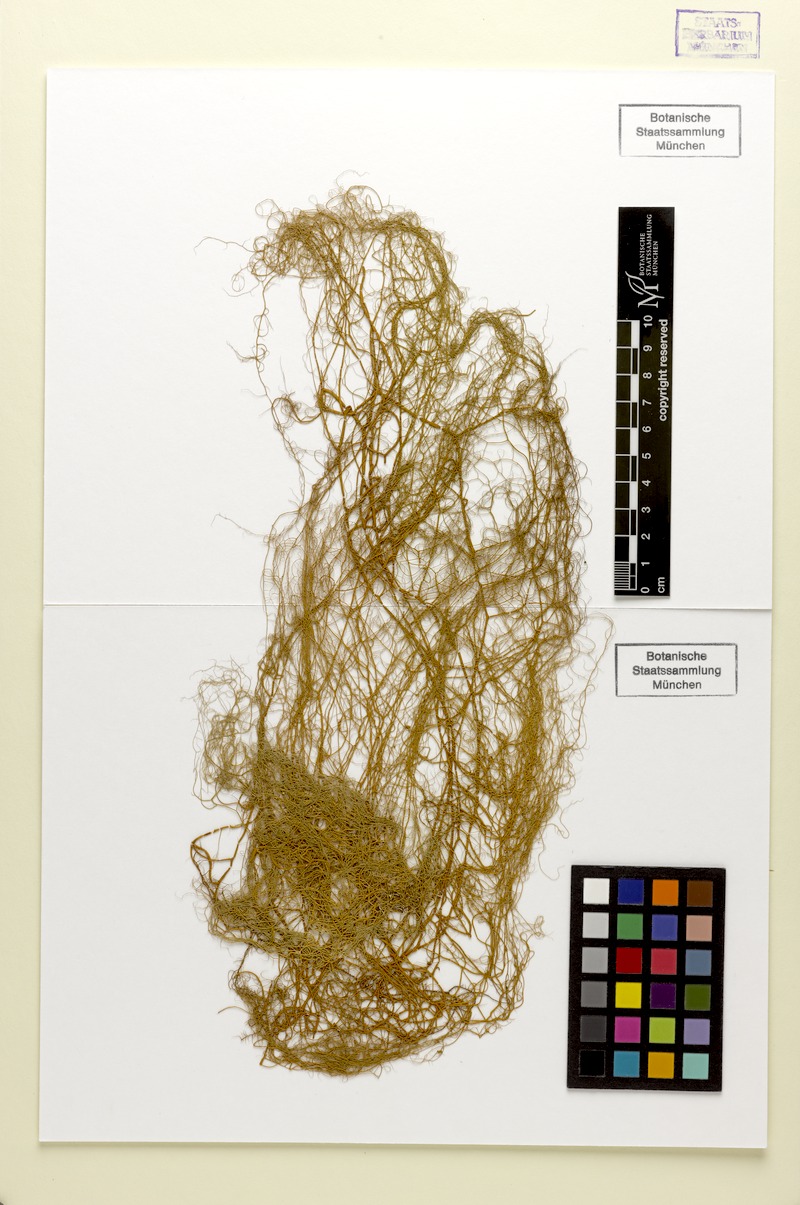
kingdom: Fungi
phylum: Ascomycota
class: Lecanoromycetes
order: Lecanorales
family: Parmeliaceae
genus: Usnea
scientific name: Usnea flavescens
